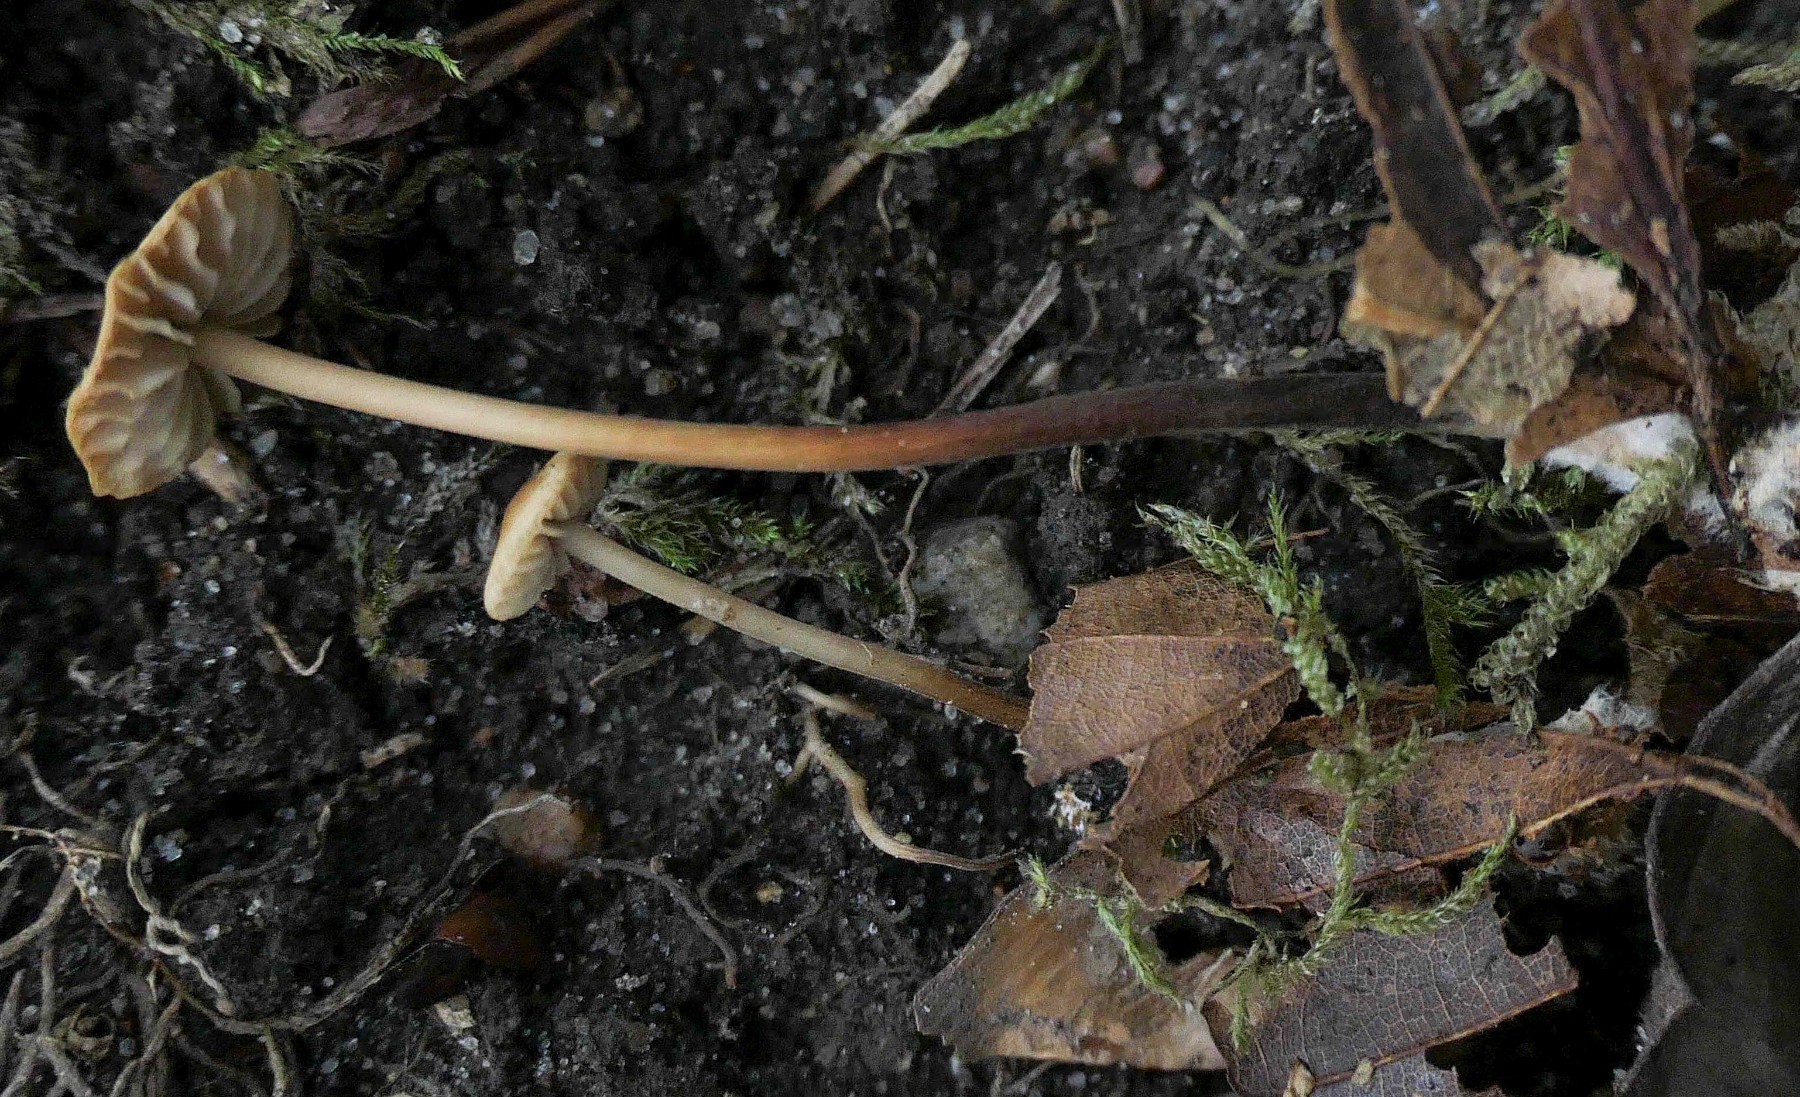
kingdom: Fungi
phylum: Basidiomycota
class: Agaricomycetes
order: Agaricales
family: Marasmiaceae
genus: Marasmius
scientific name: Marasmius torquescens
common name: filtfodet bruskhat
